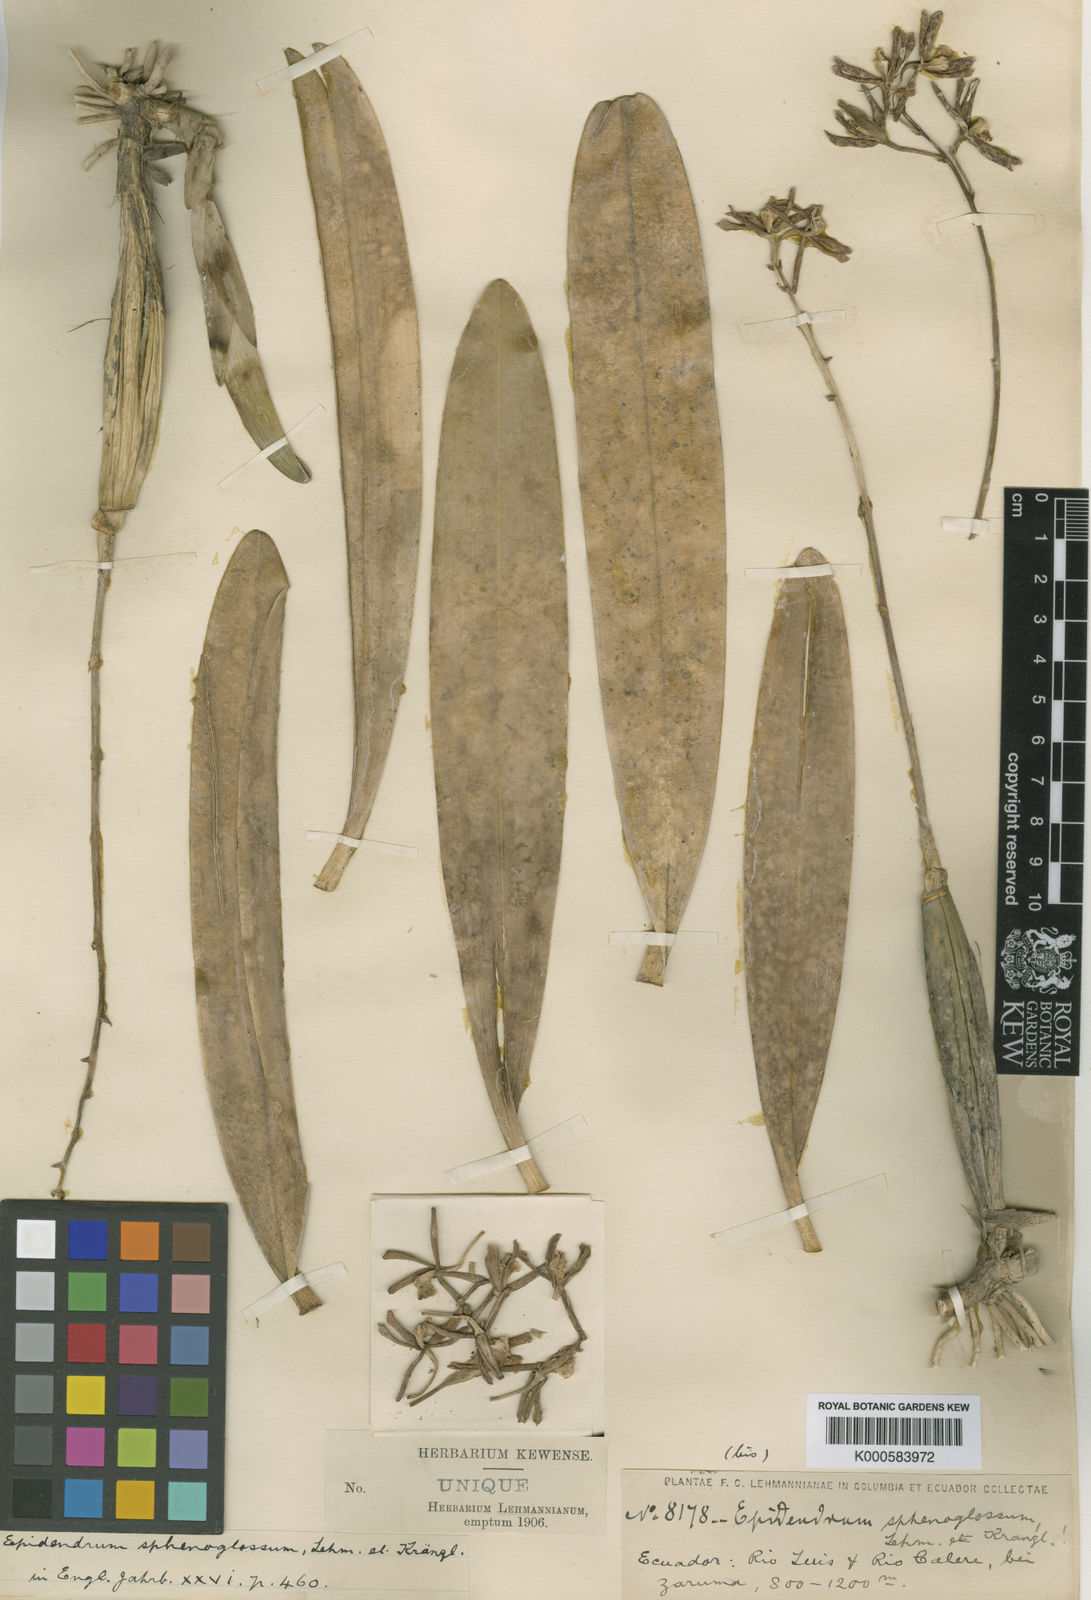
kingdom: Plantae
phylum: Tracheophyta
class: Liliopsida
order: Asparagales
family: Orchidaceae
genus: Encyclia
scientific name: Encyclia
